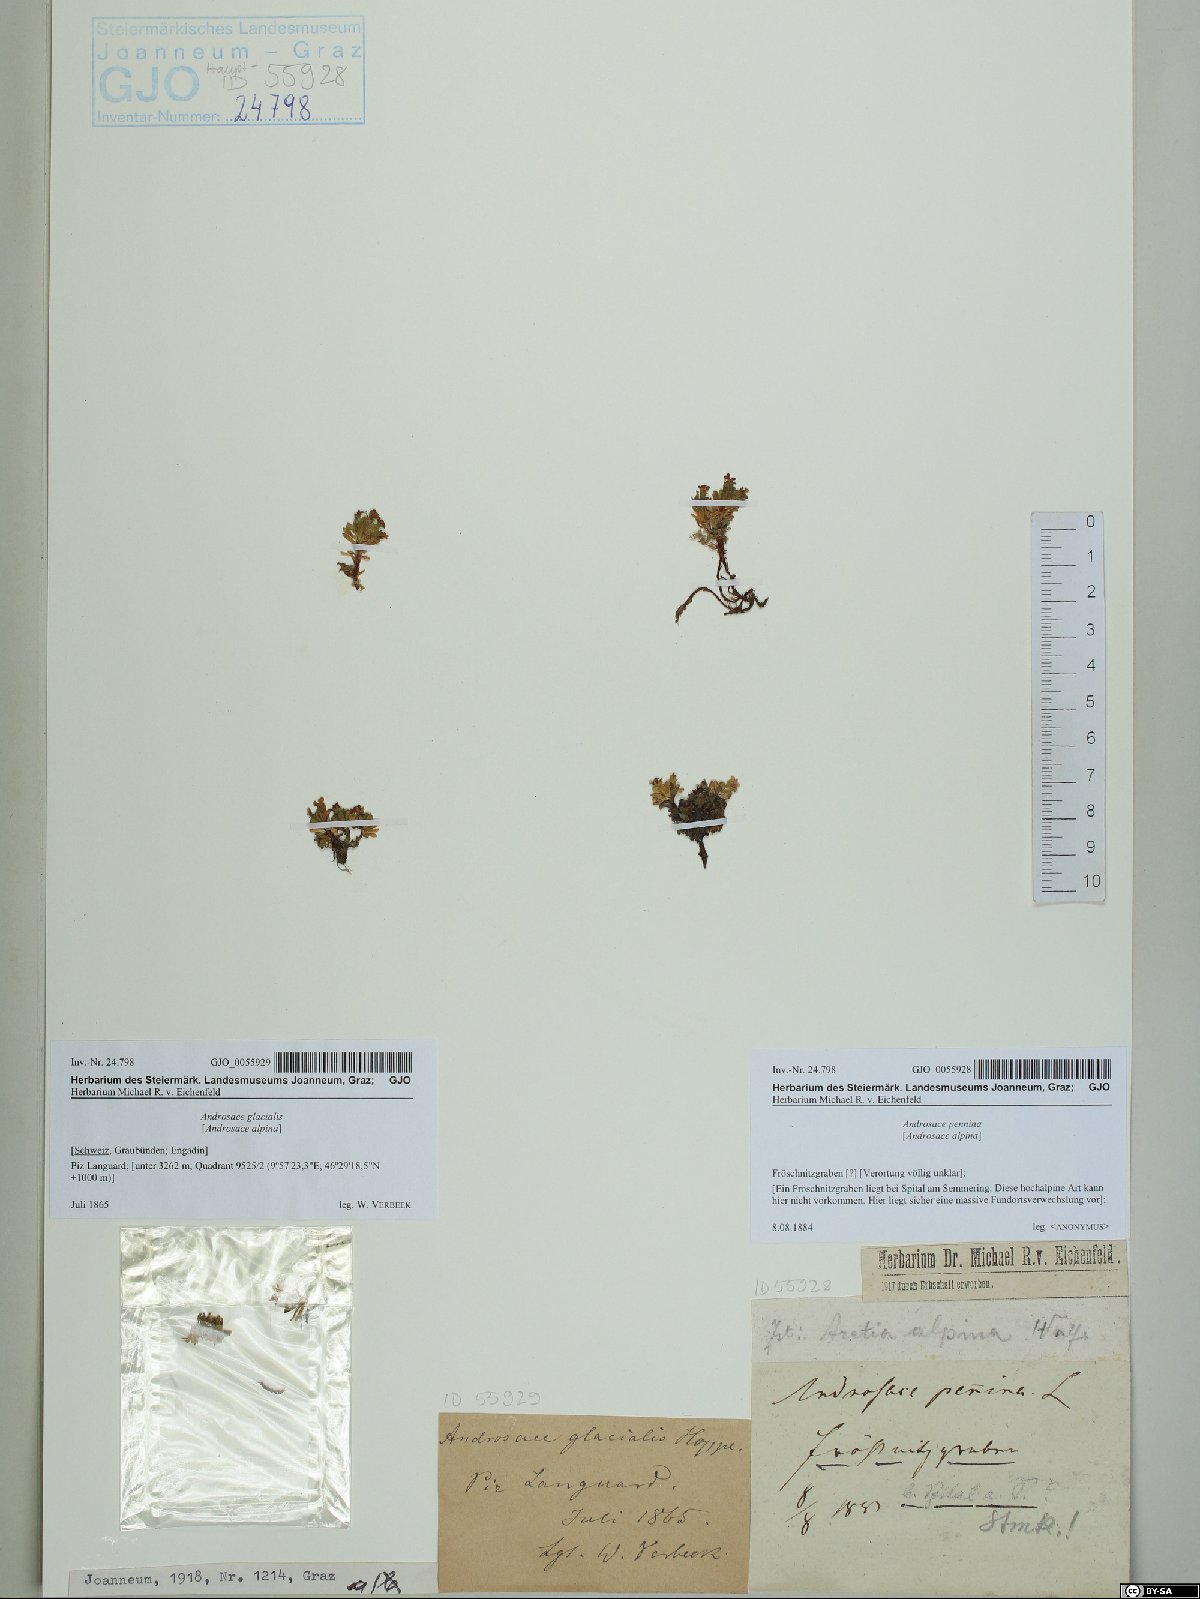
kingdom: Plantae
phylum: Tracheophyta
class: Magnoliopsida
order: Ericales
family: Primulaceae
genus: Androsace
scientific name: Androsace alpina
